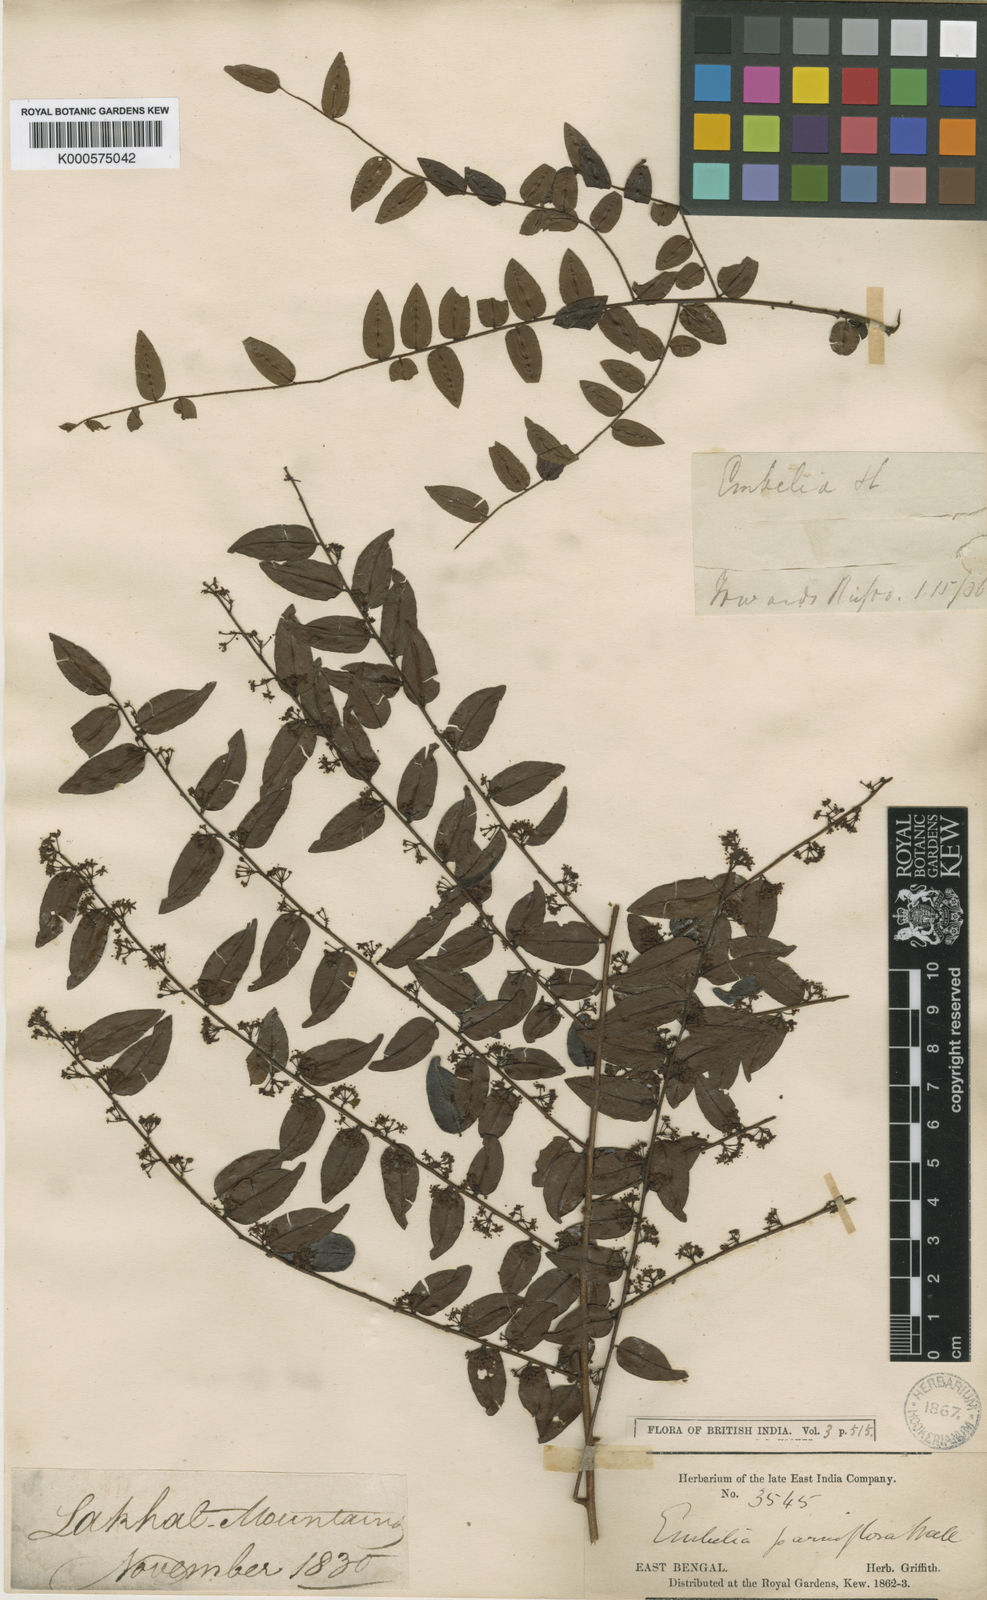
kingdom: Plantae
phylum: Tracheophyta
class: Magnoliopsida
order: Ericales
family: Primulaceae
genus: Embelia
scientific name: Embelia
